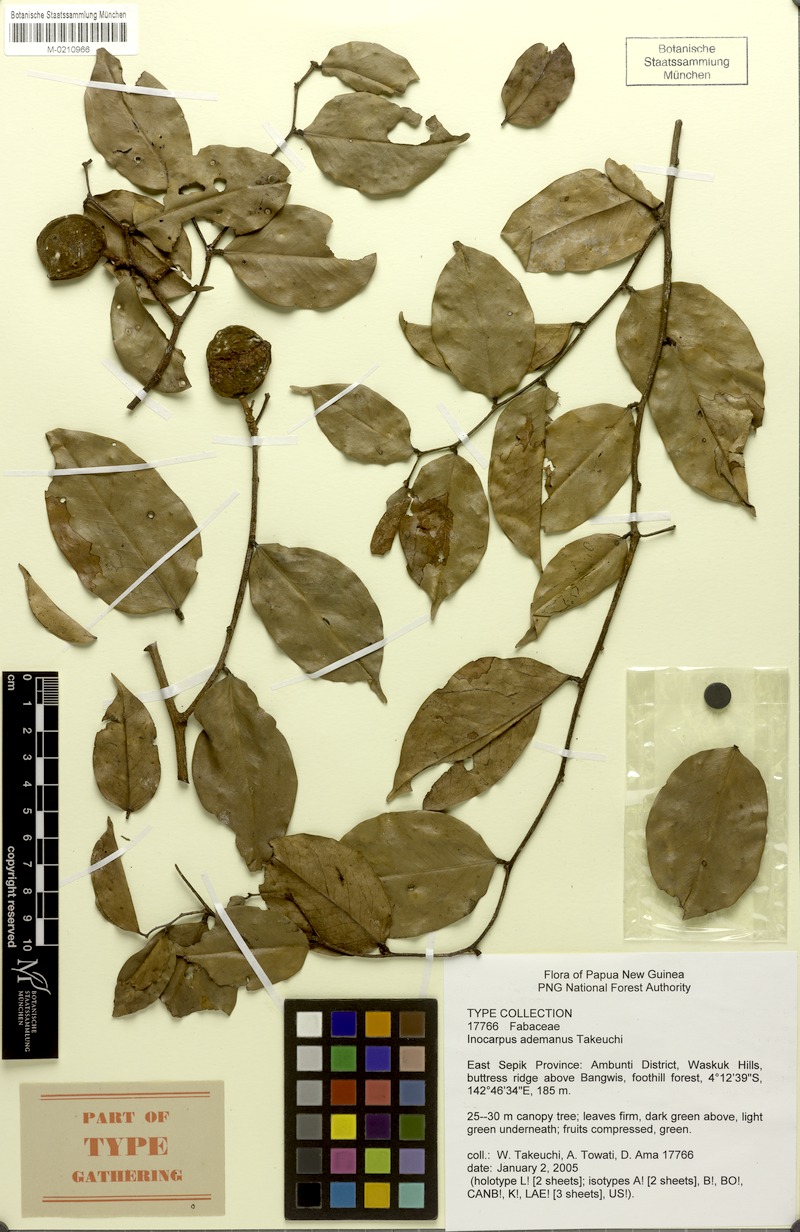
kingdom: Plantae
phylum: Tracheophyta
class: Magnoliopsida
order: Fabales
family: Fabaceae
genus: Inocarpus
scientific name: Inocarpus ademanus
